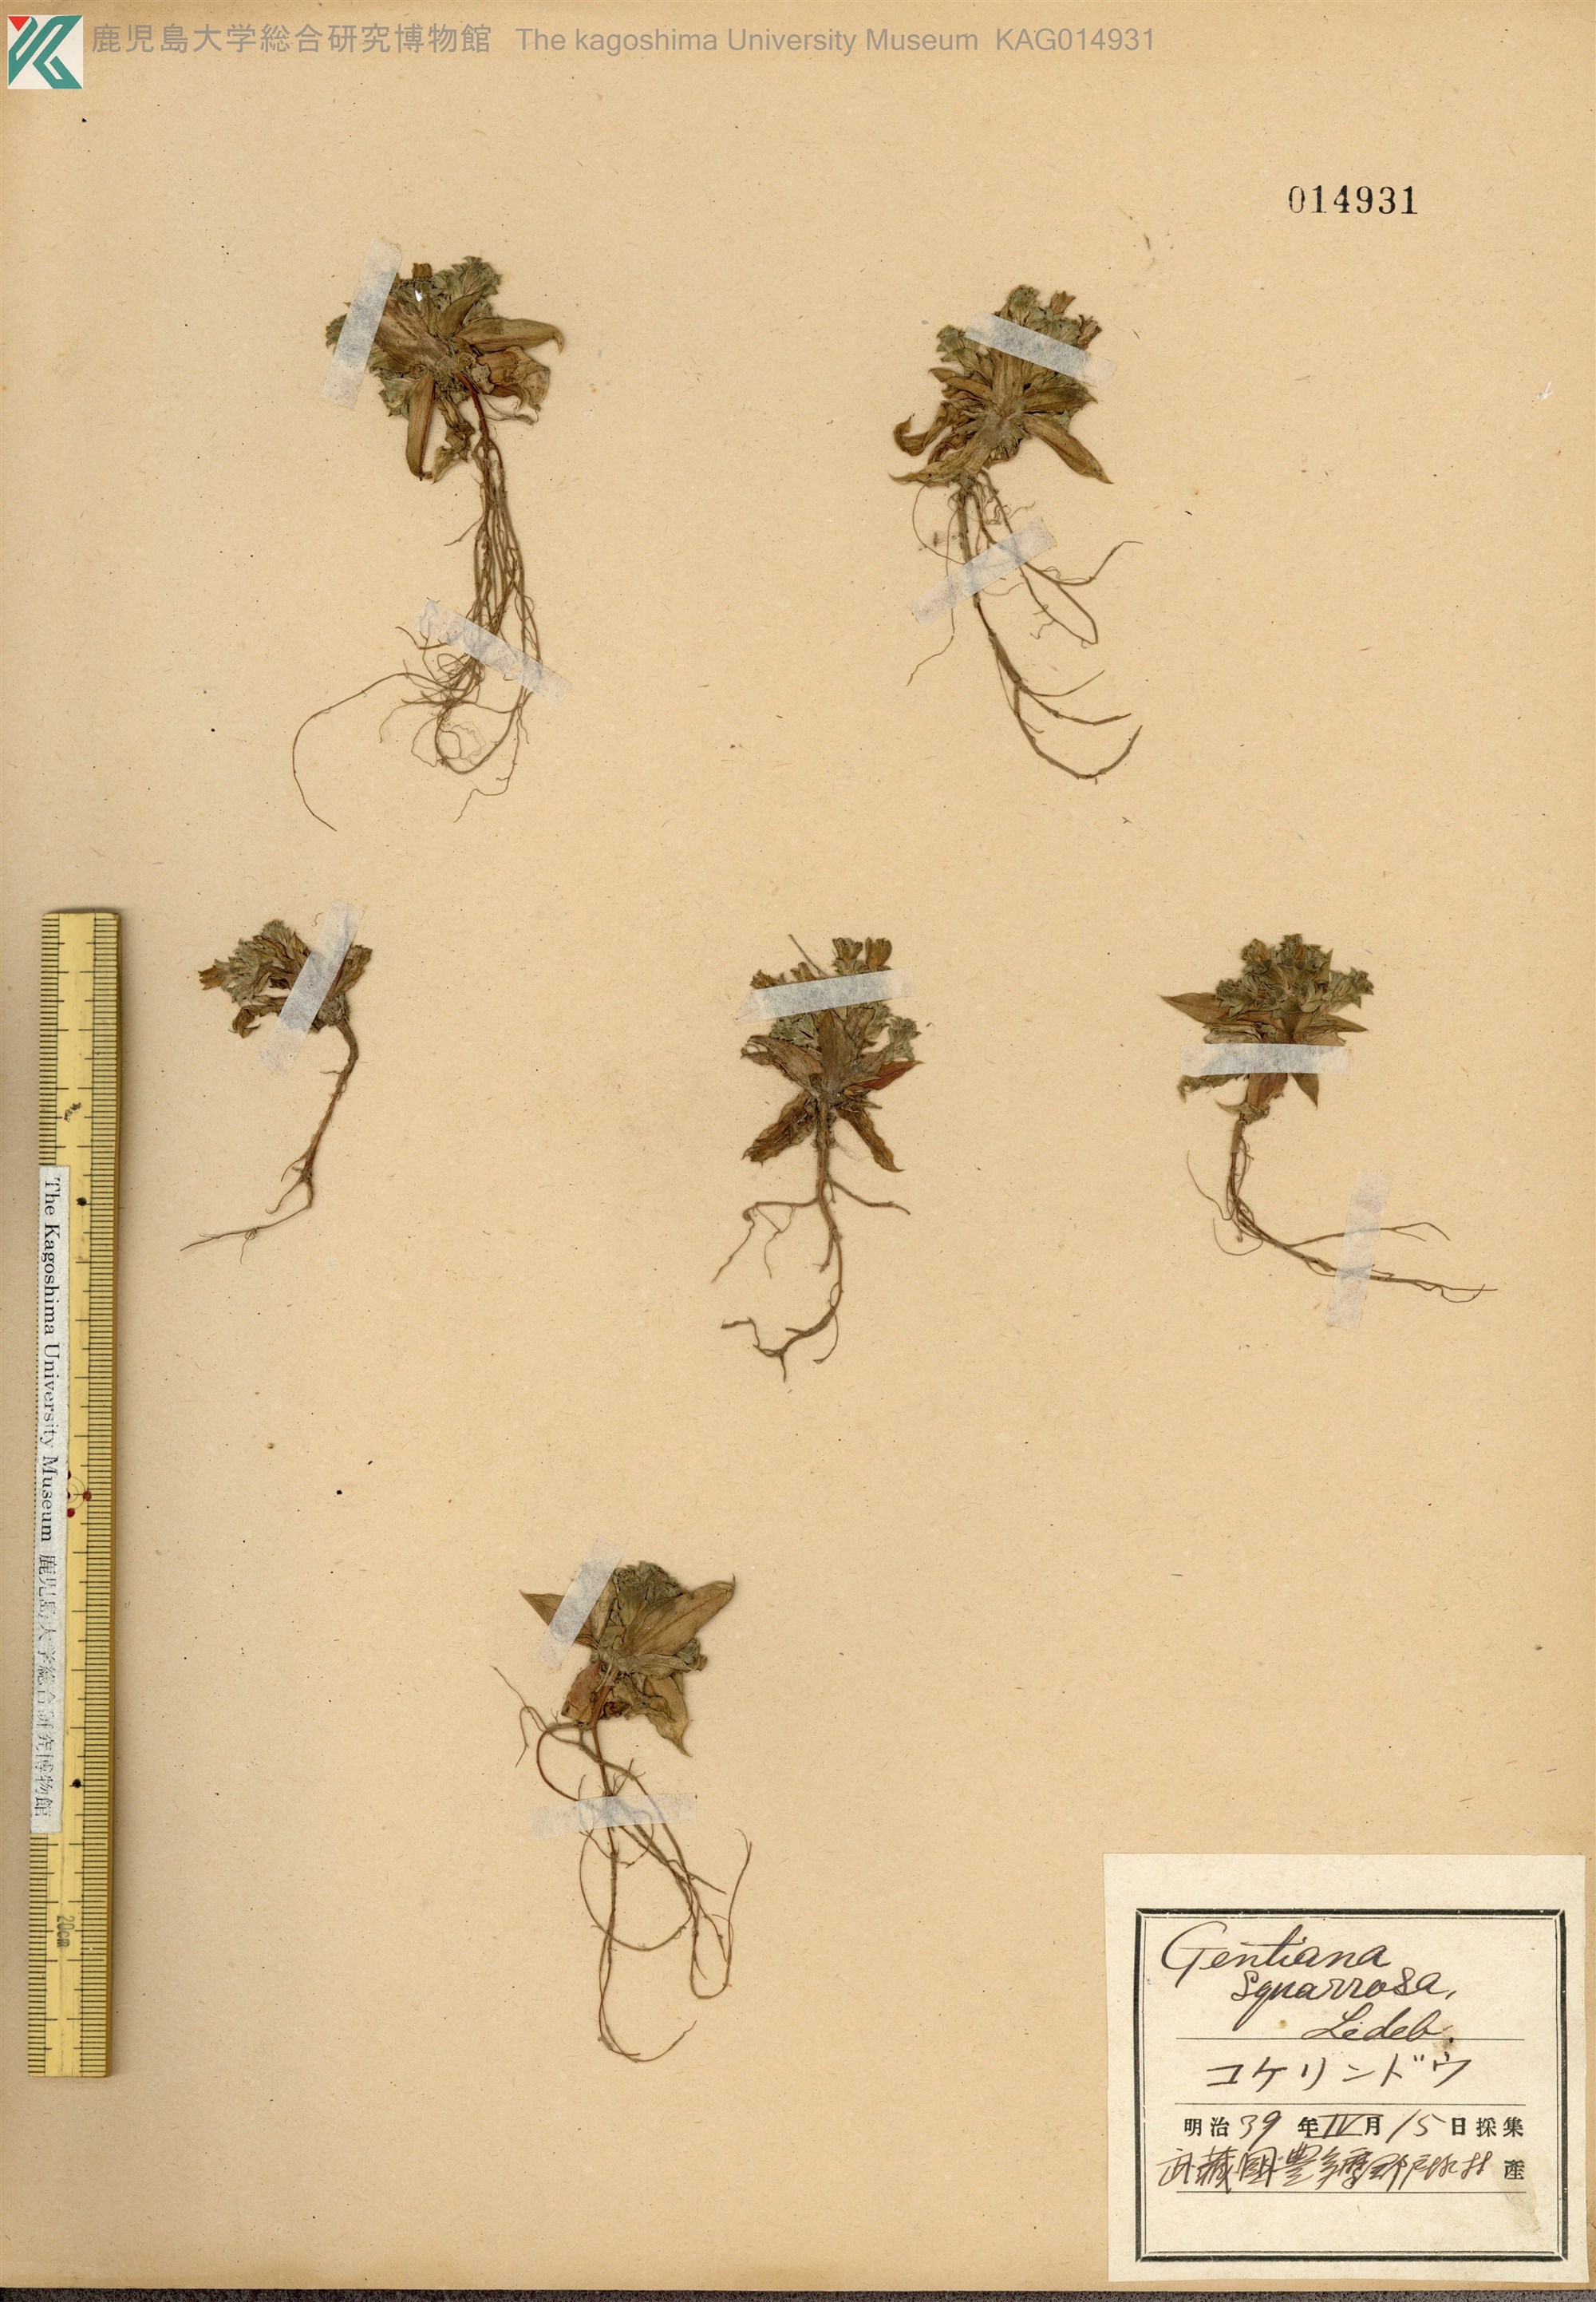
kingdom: Plantae
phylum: Tracheophyta
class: Magnoliopsida
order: Gentianales
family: Gentianaceae
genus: Gentiana
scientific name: Gentiana squarrosa
